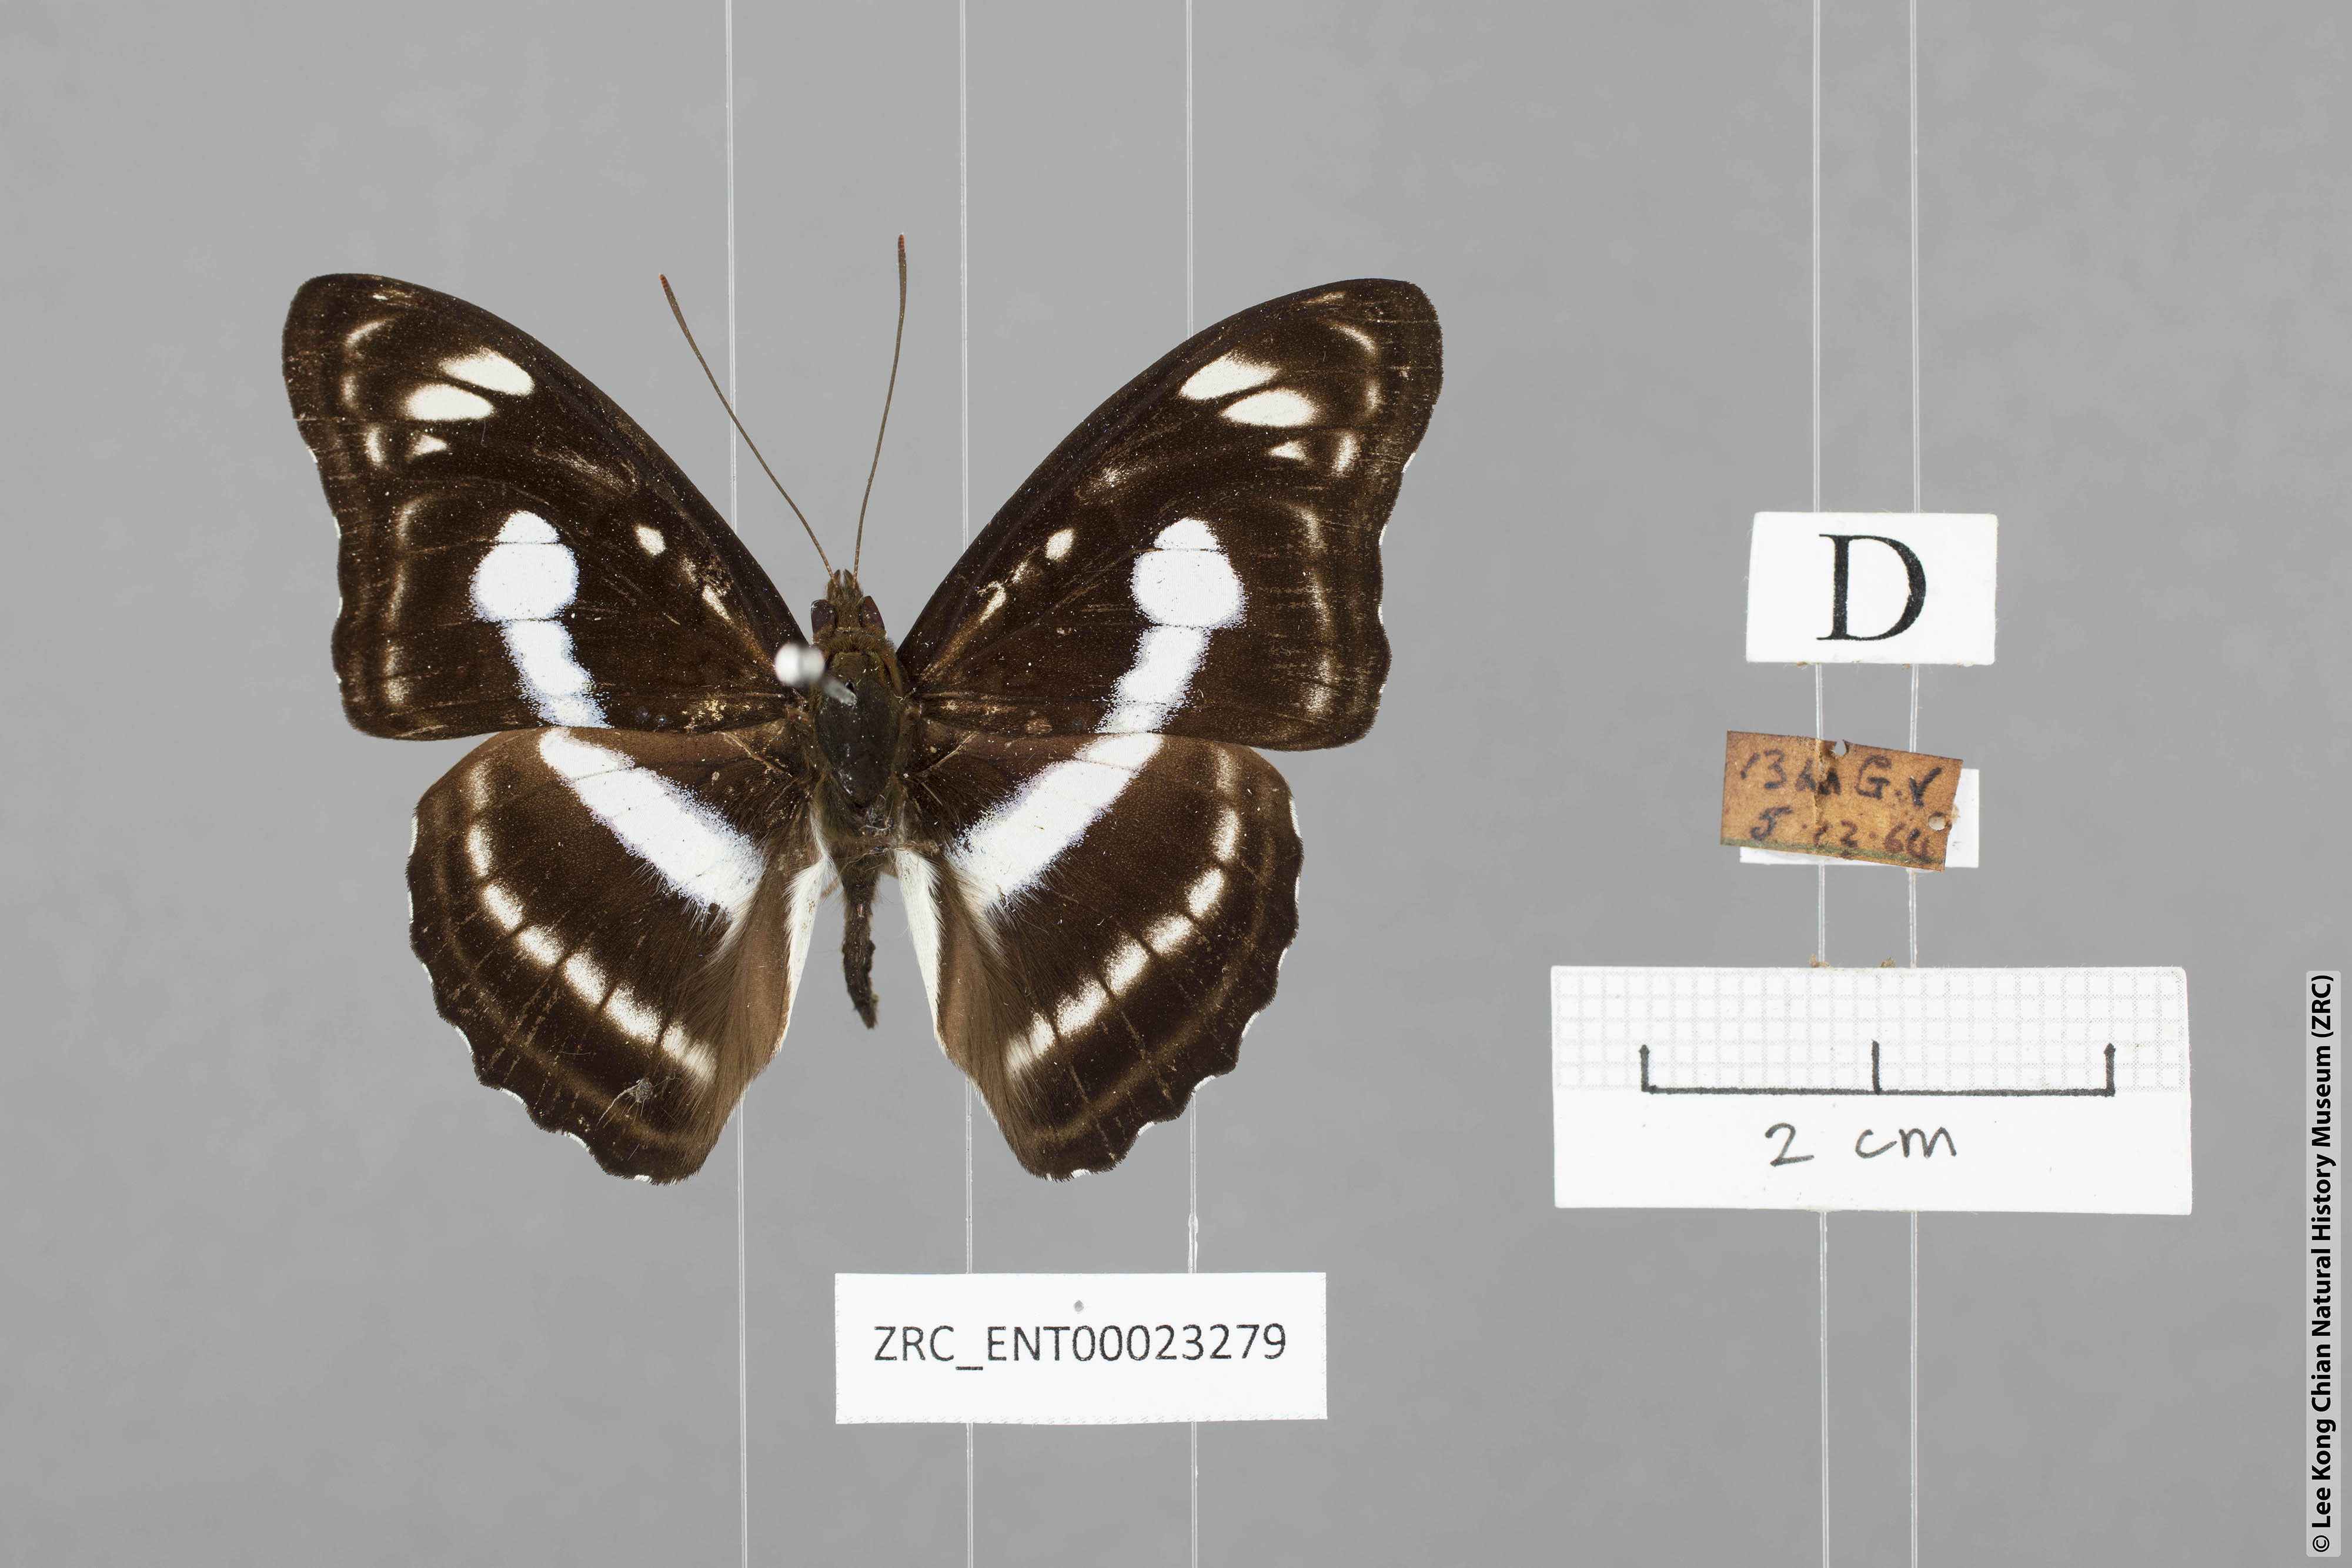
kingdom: Animalia
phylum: Arthropoda
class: Insecta
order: Lepidoptera
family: Nymphalidae
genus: Parathyma
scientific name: Parathyma selenophora
